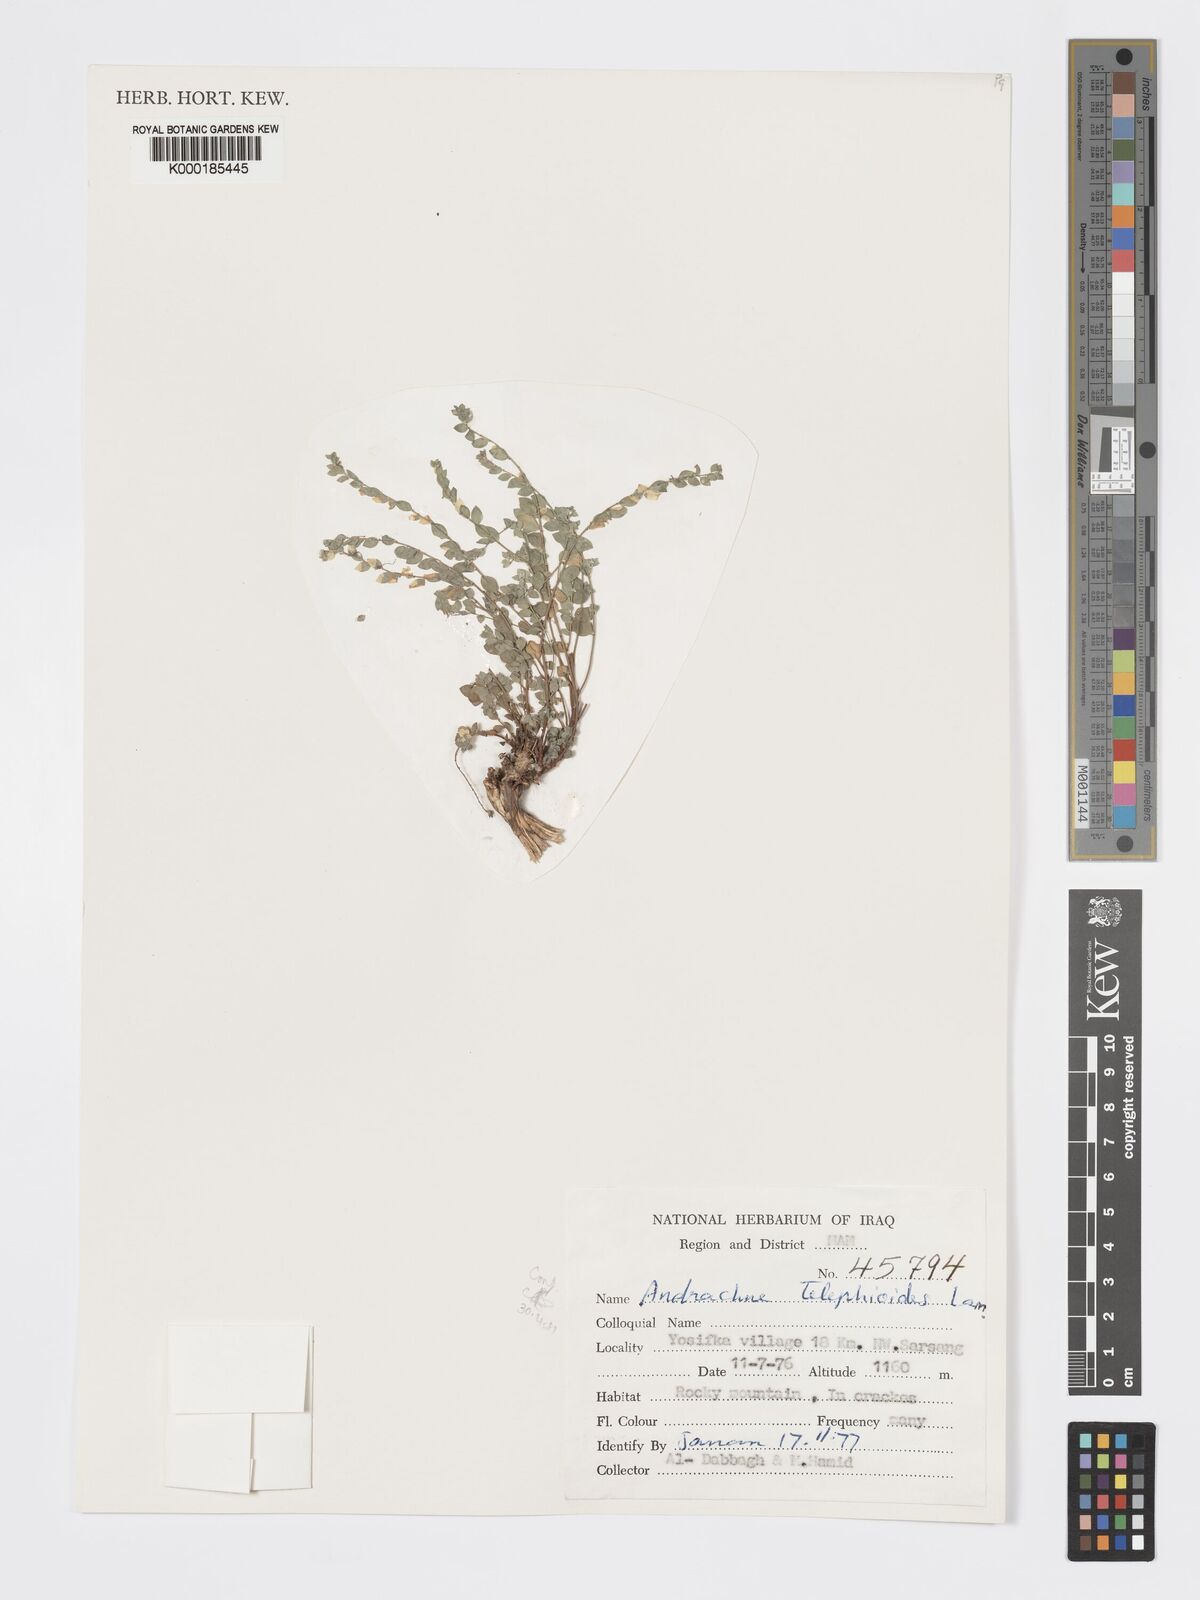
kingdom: Plantae
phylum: Tracheophyta
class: Magnoliopsida
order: Malpighiales
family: Phyllanthaceae
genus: Andrachne
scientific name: Andrachne telephioides
